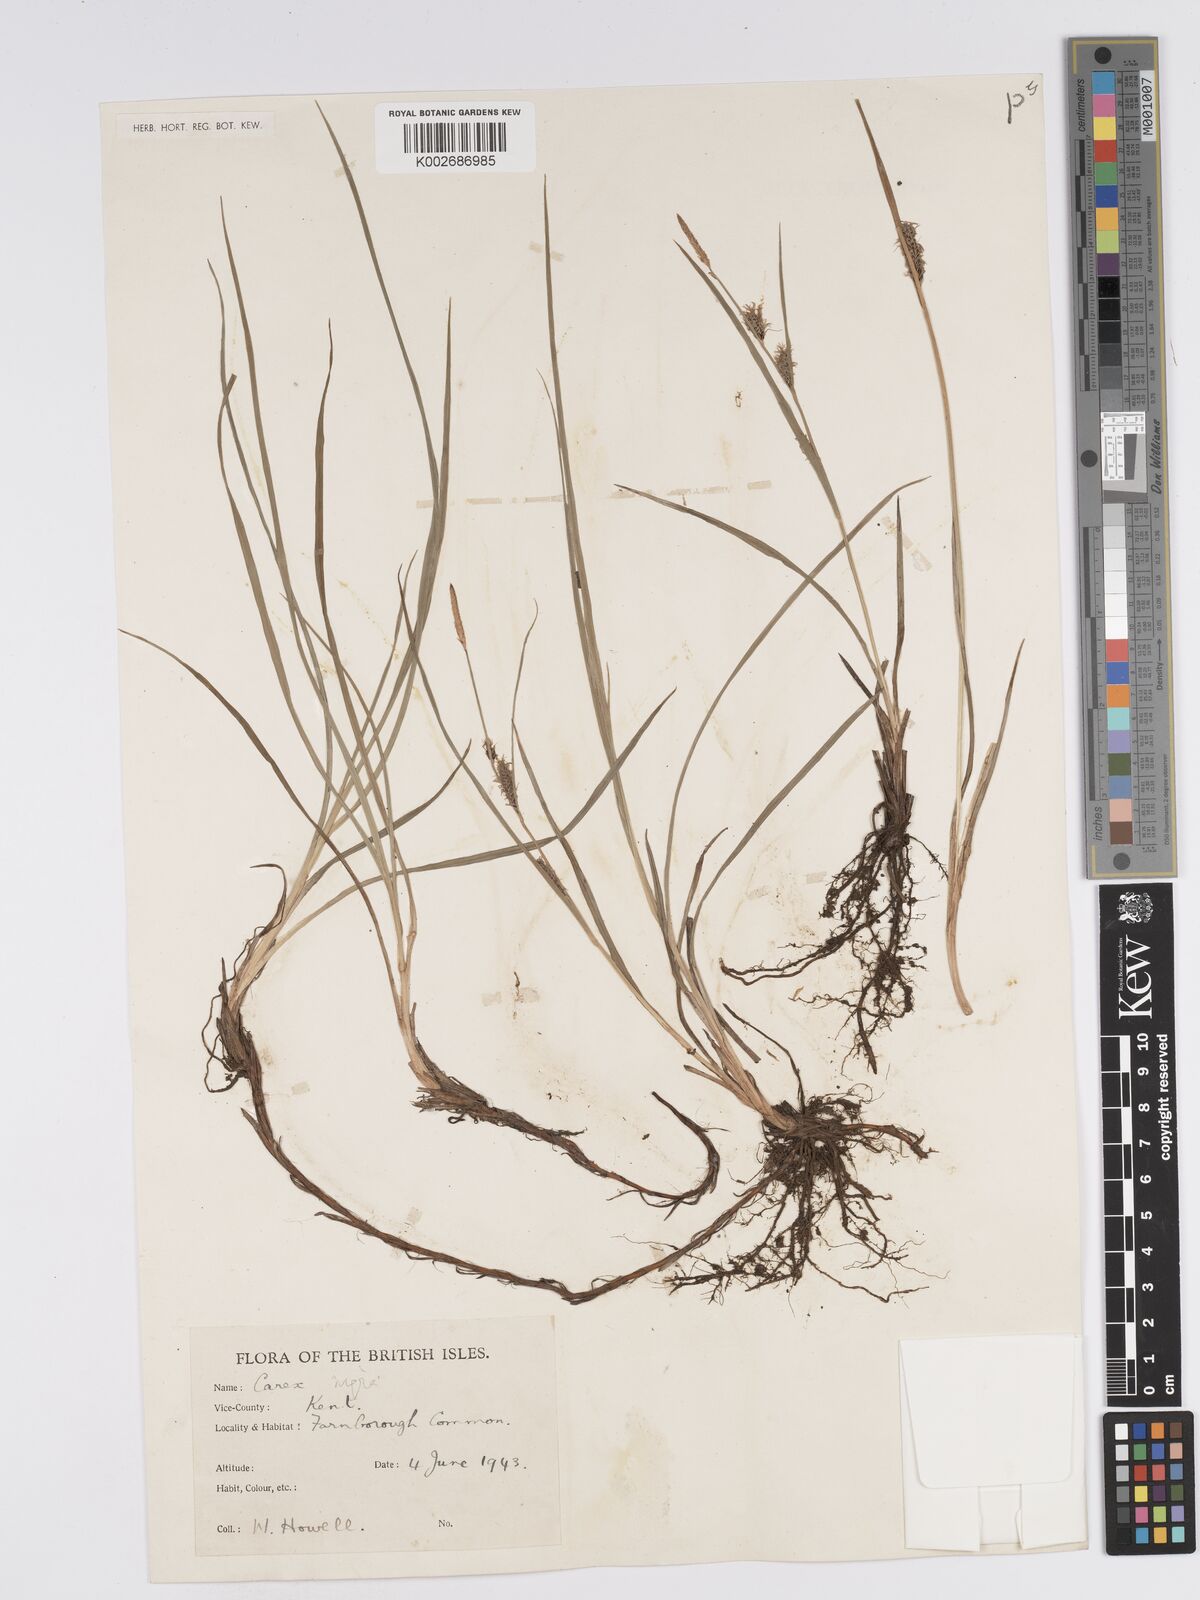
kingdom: Plantae
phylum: Tracheophyta
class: Liliopsida
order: Poales
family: Cyperaceae
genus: Carex
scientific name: Carex nigra
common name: Common sedge
